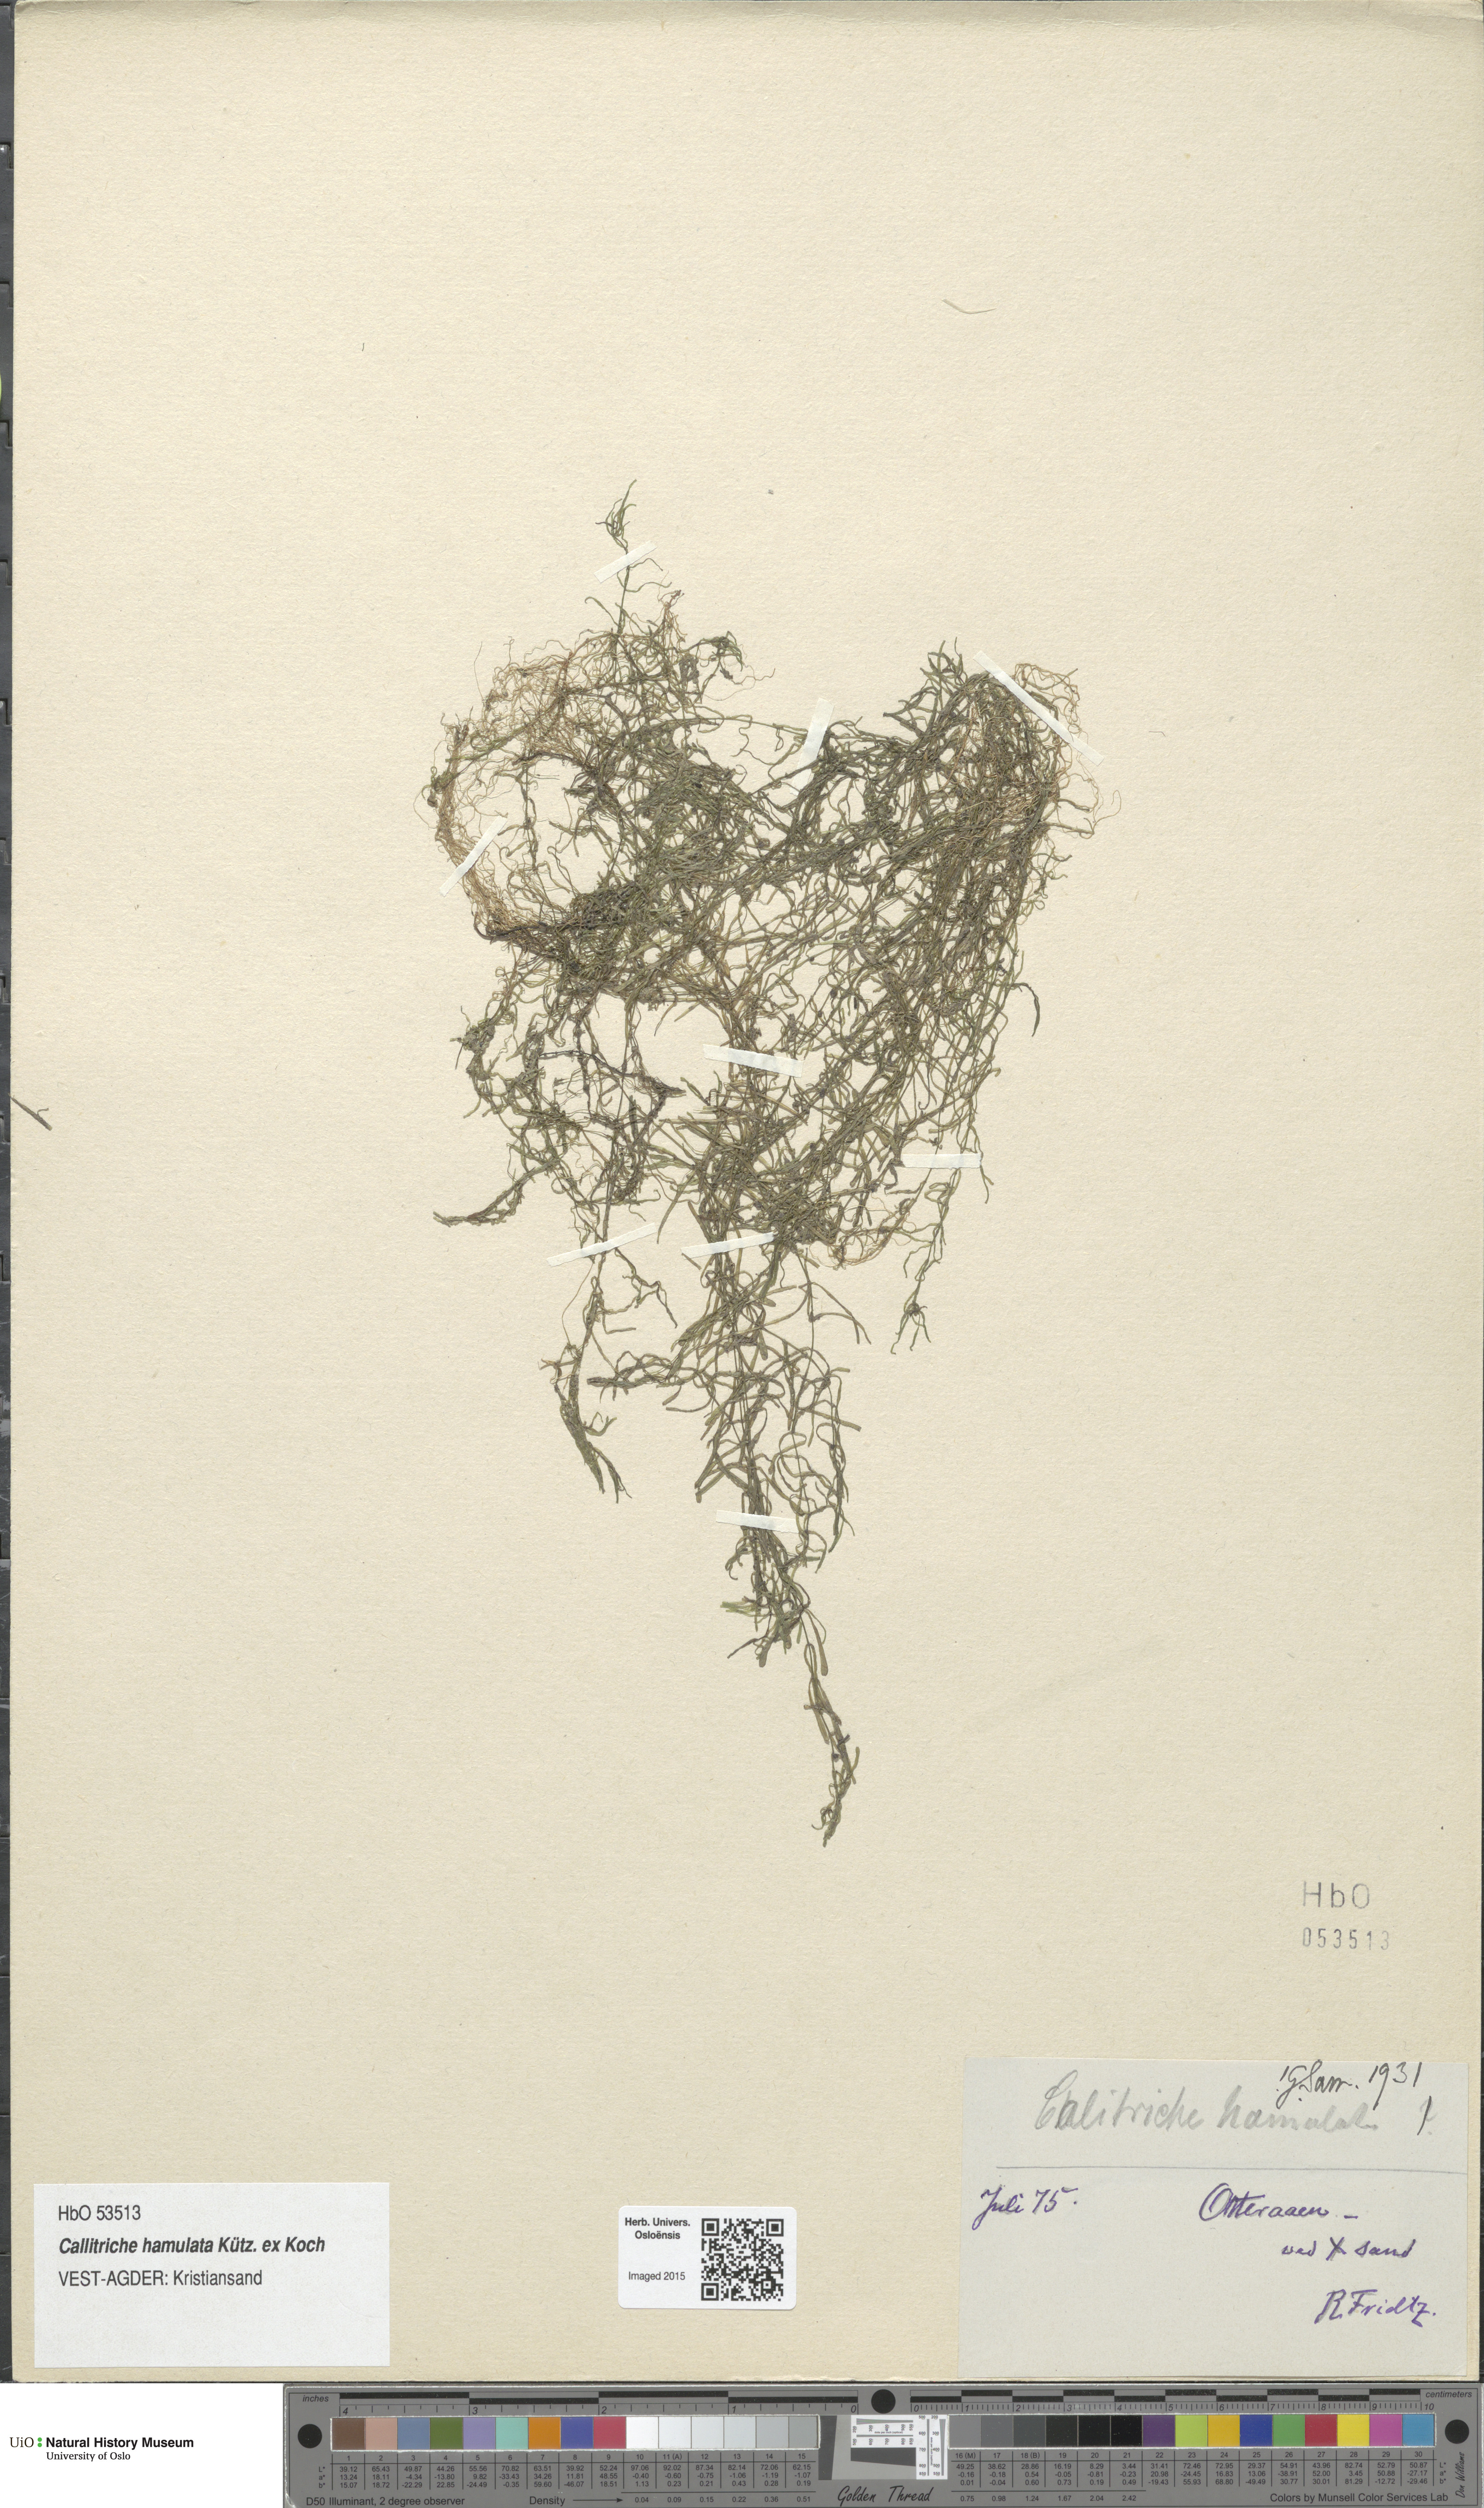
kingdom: Plantae
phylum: Tracheophyta
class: Magnoliopsida
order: Lamiales
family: Plantaginaceae
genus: Callitriche
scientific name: Callitriche hamulata
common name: Intermediate water-starwort
